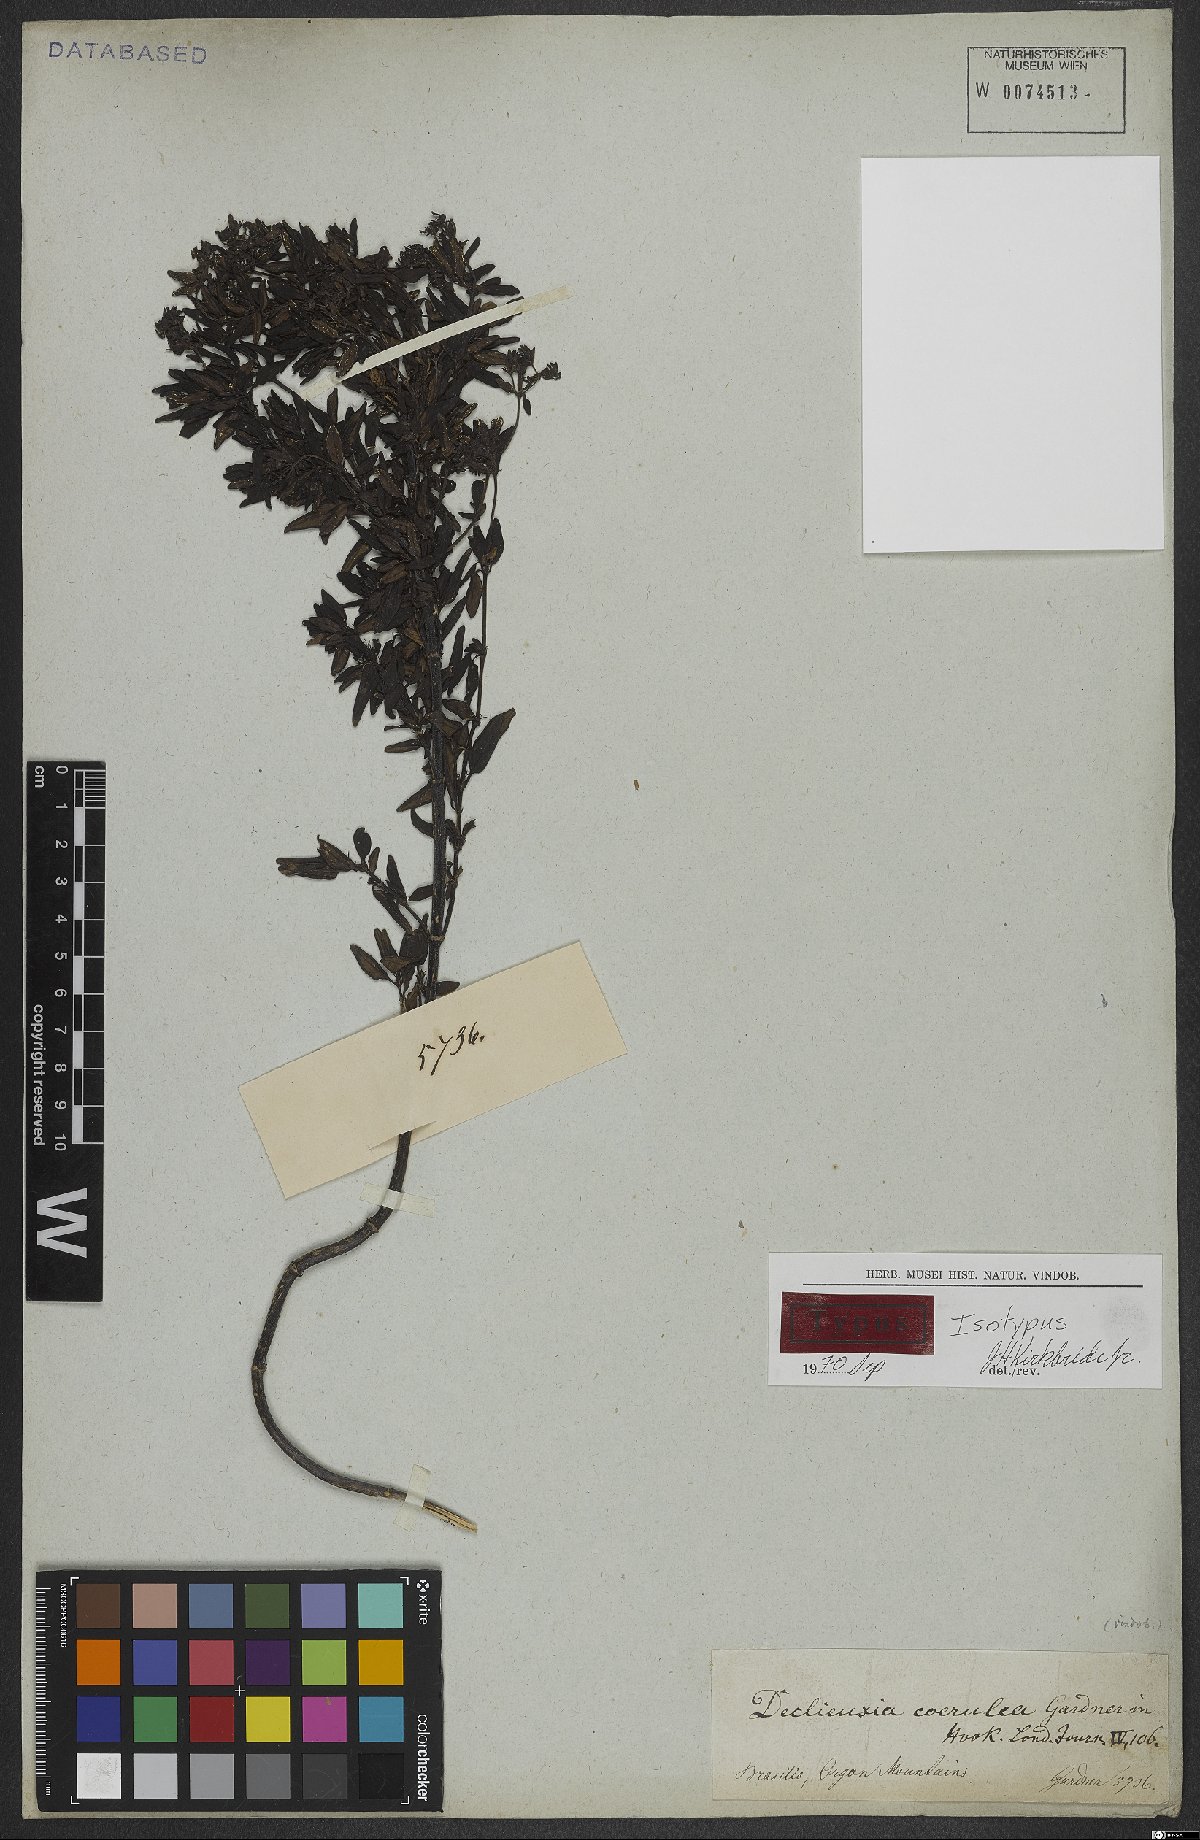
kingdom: Plantae
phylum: Tracheophyta
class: Magnoliopsida
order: Gentianales
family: Rubiaceae
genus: Declieuxia
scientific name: Declieuxia coerulea
